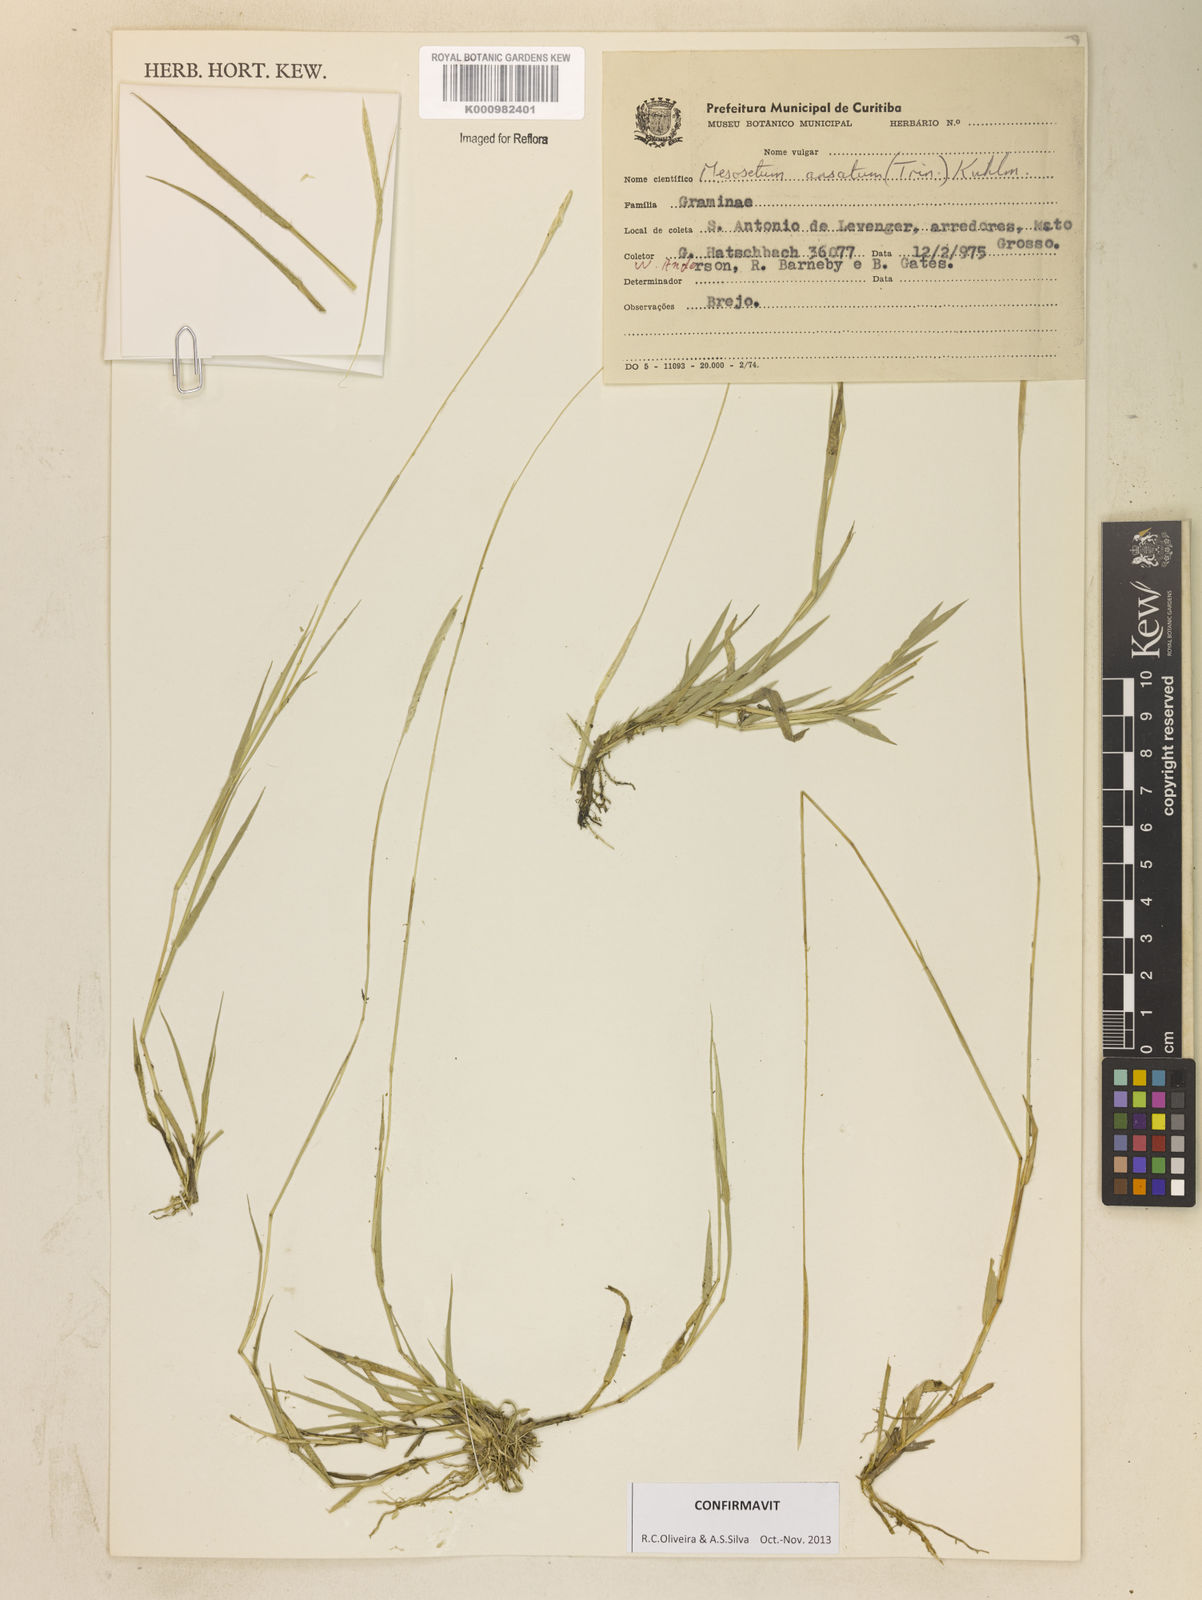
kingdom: Plantae
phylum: Tracheophyta
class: Liliopsida
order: Poales
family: Poaceae
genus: Mesosetum
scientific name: Mesosetum ansatum
